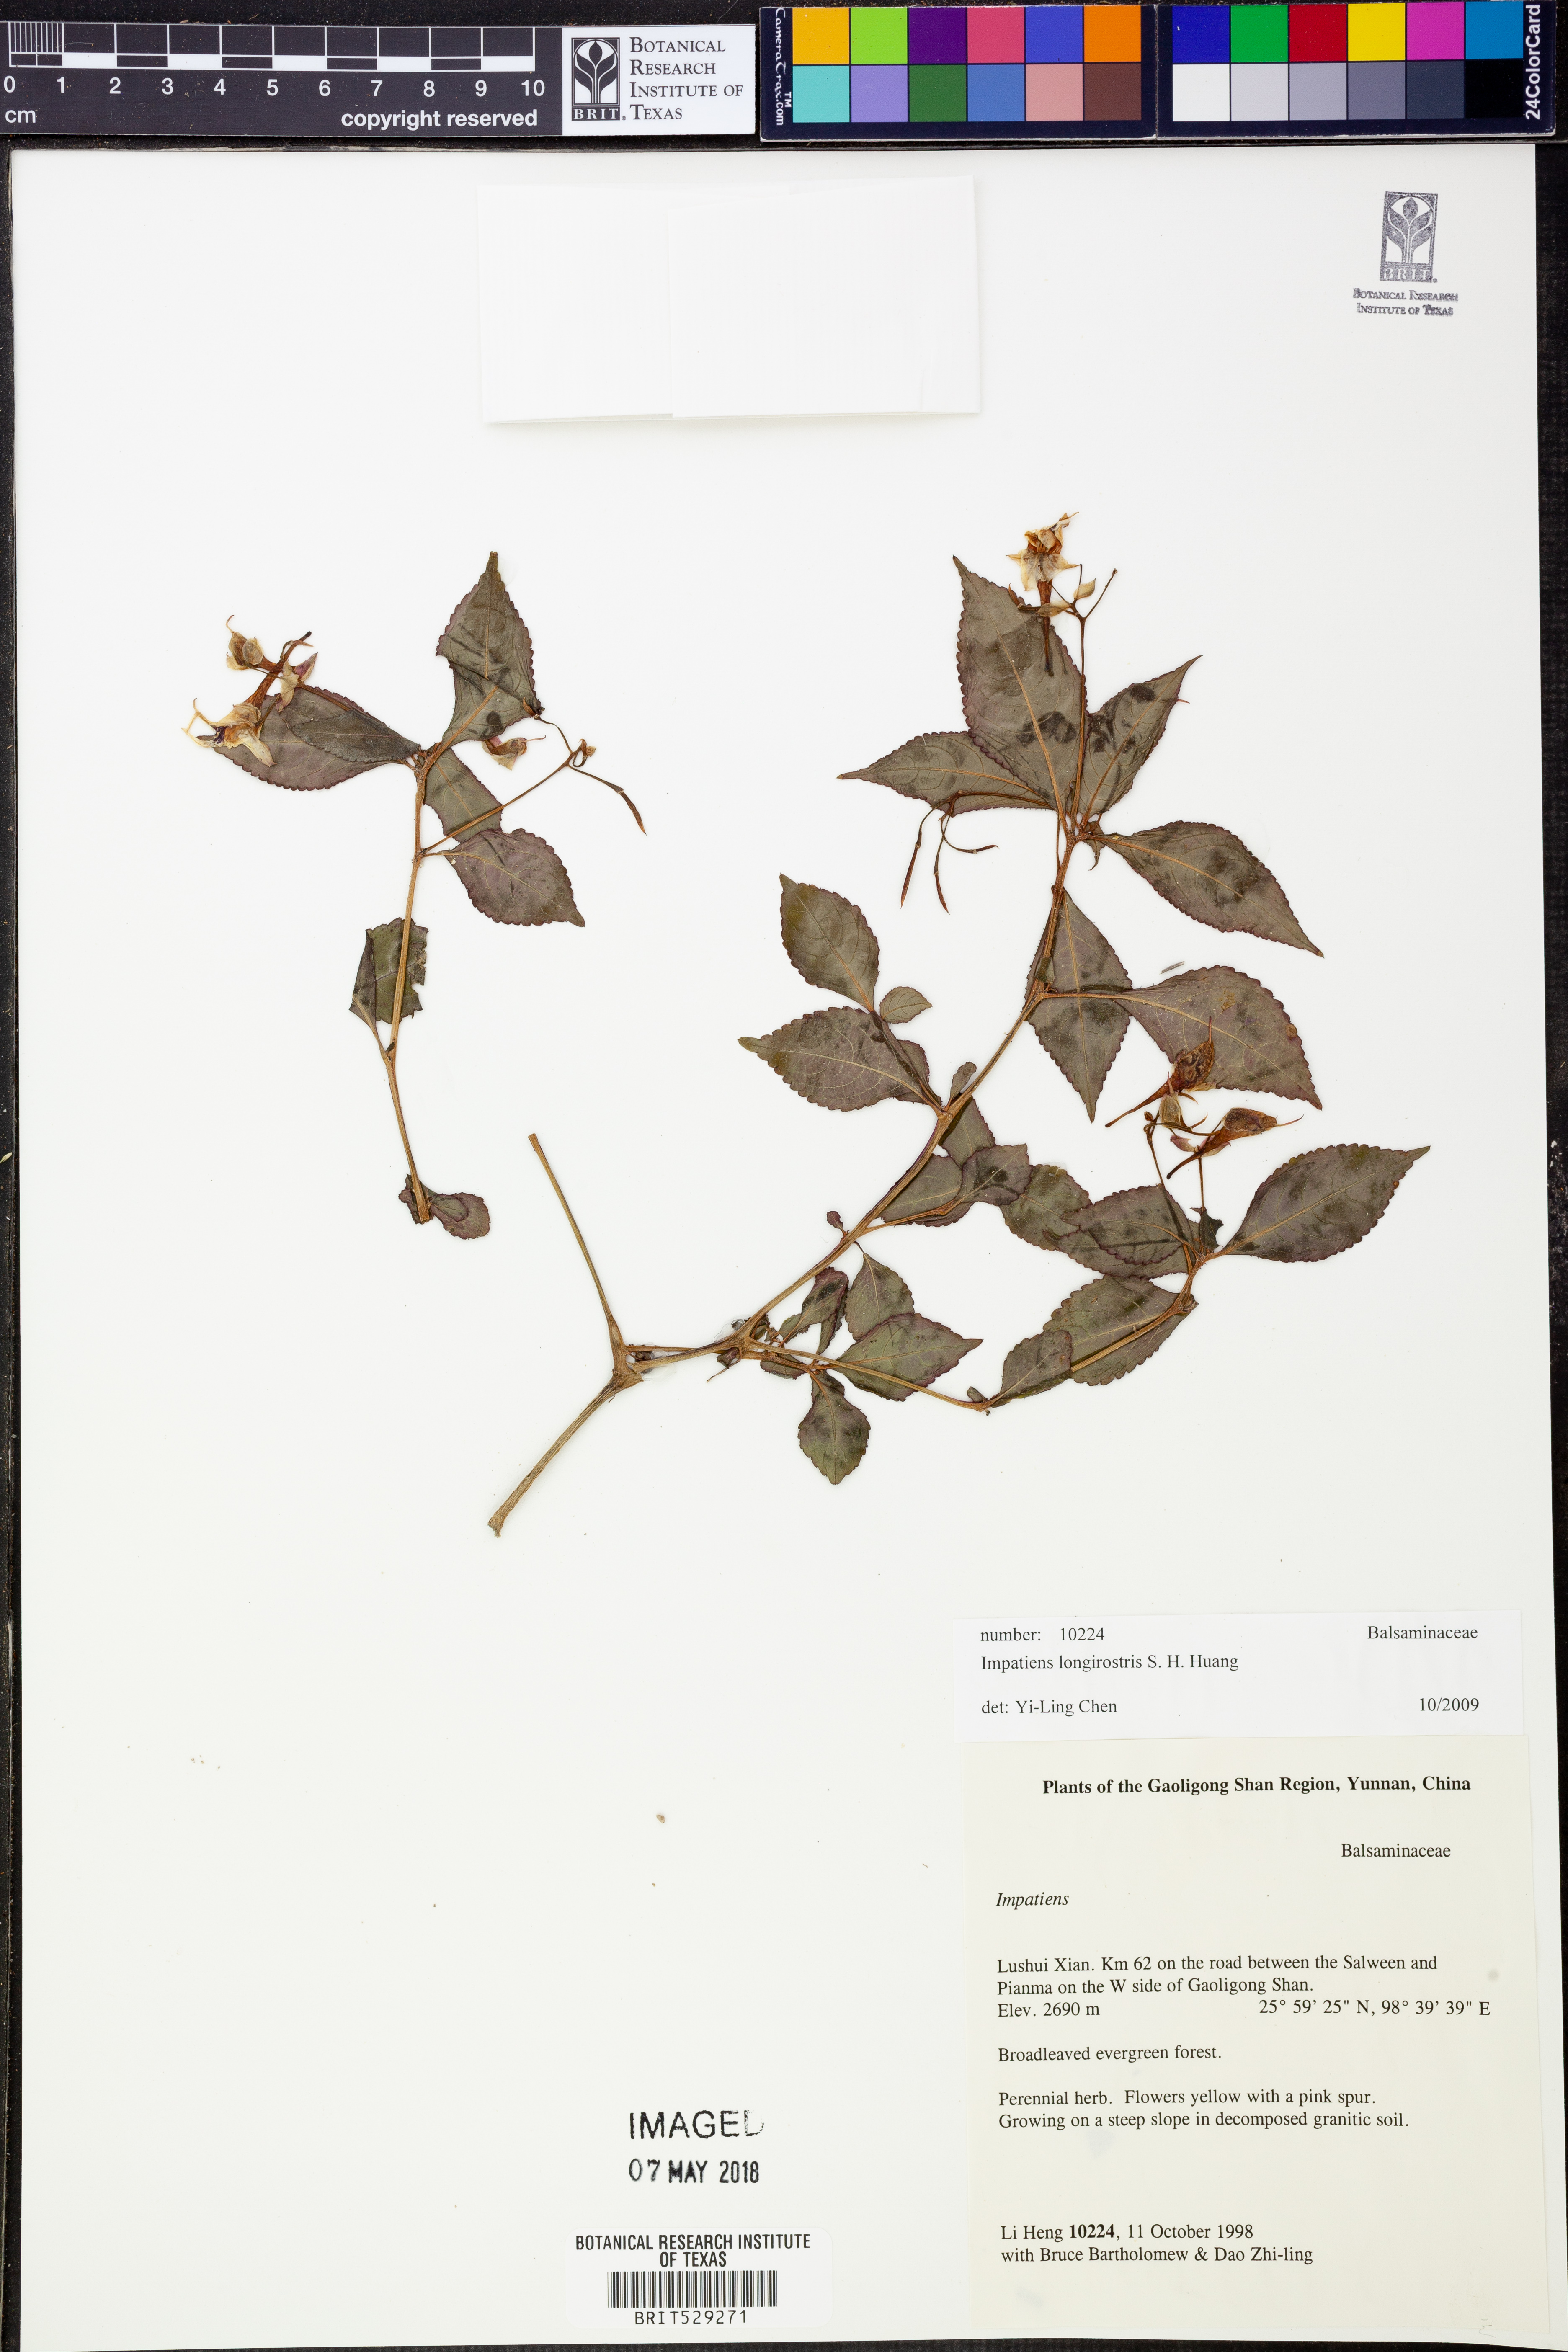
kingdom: Plantae
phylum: Tracheophyta
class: Magnoliopsida
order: Ericales
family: Balsaminaceae
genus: Impatiens
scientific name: Impatiens longirostris
